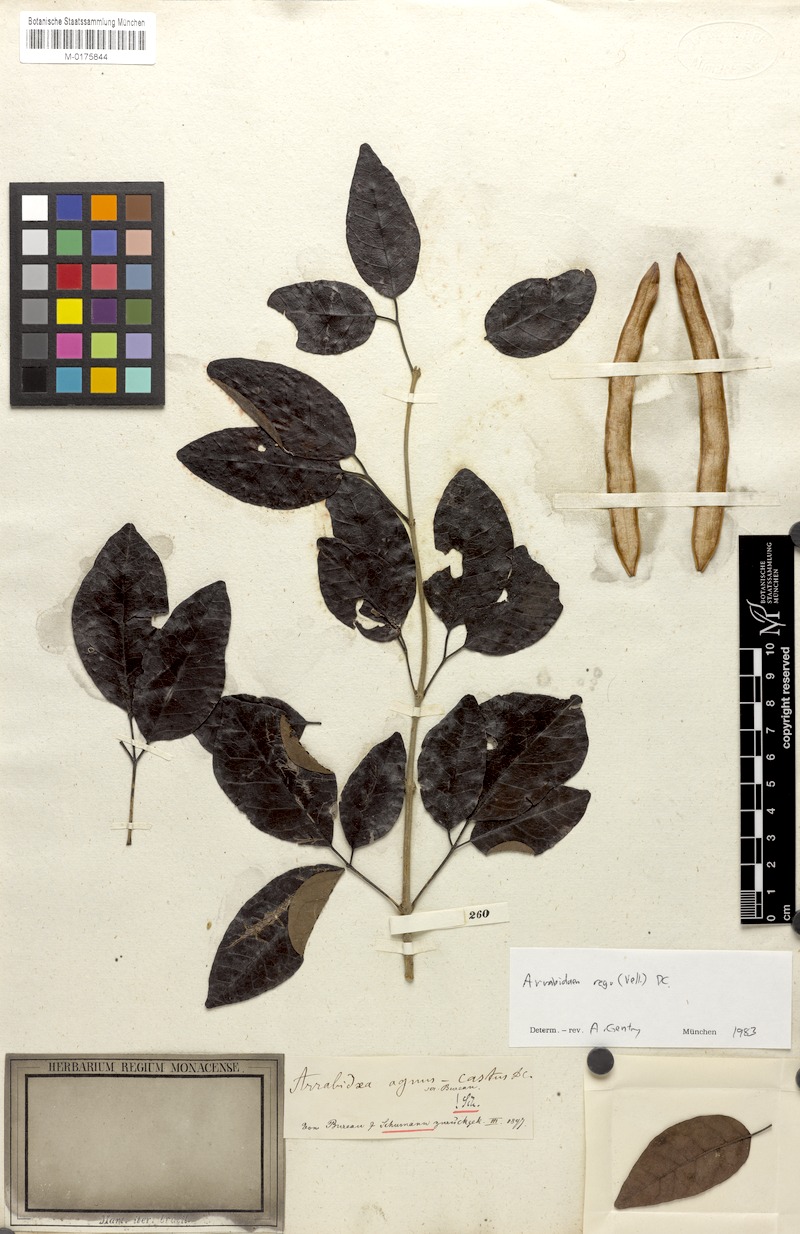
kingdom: Plantae
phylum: Tracheophyta
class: Magnoliopsida
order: Lamiales
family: Bignoniaceae
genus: Fridericia
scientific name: Fridericia rego
